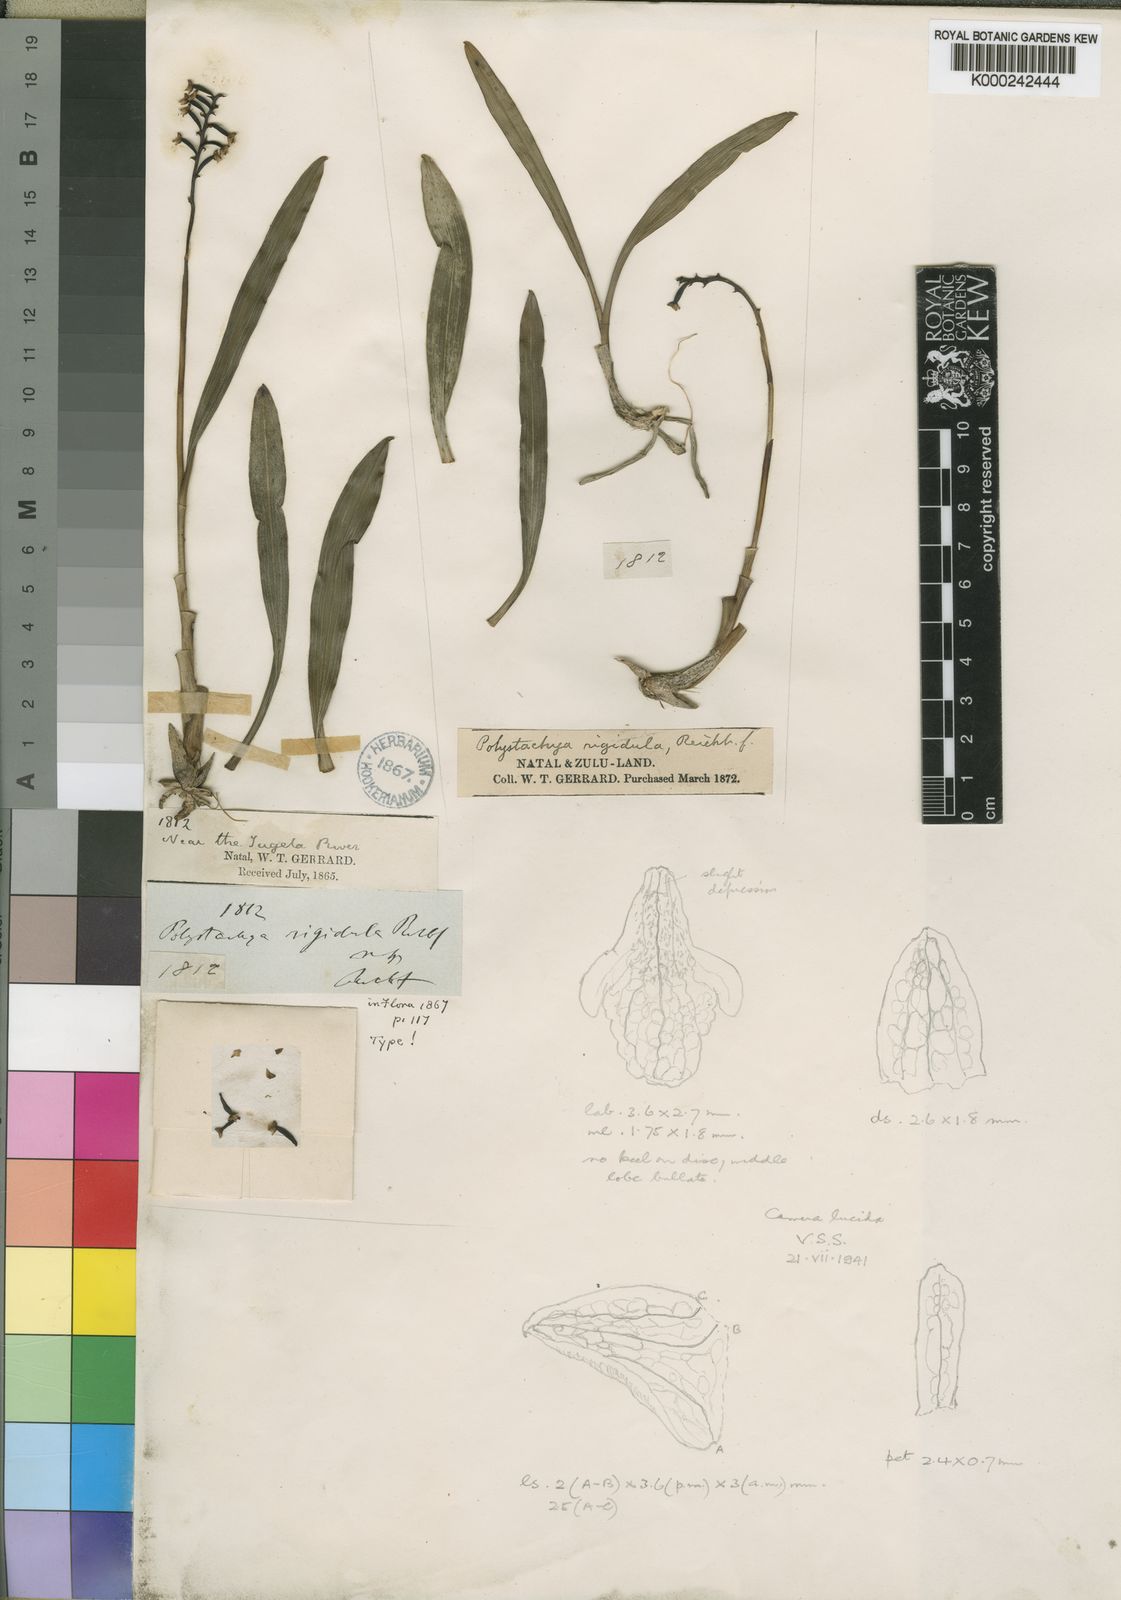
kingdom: Plantae
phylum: Tracheophyta
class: Liliopsida
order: Asparagales
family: Orchidaceae
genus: Polystachya
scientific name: Polystachya modesta
